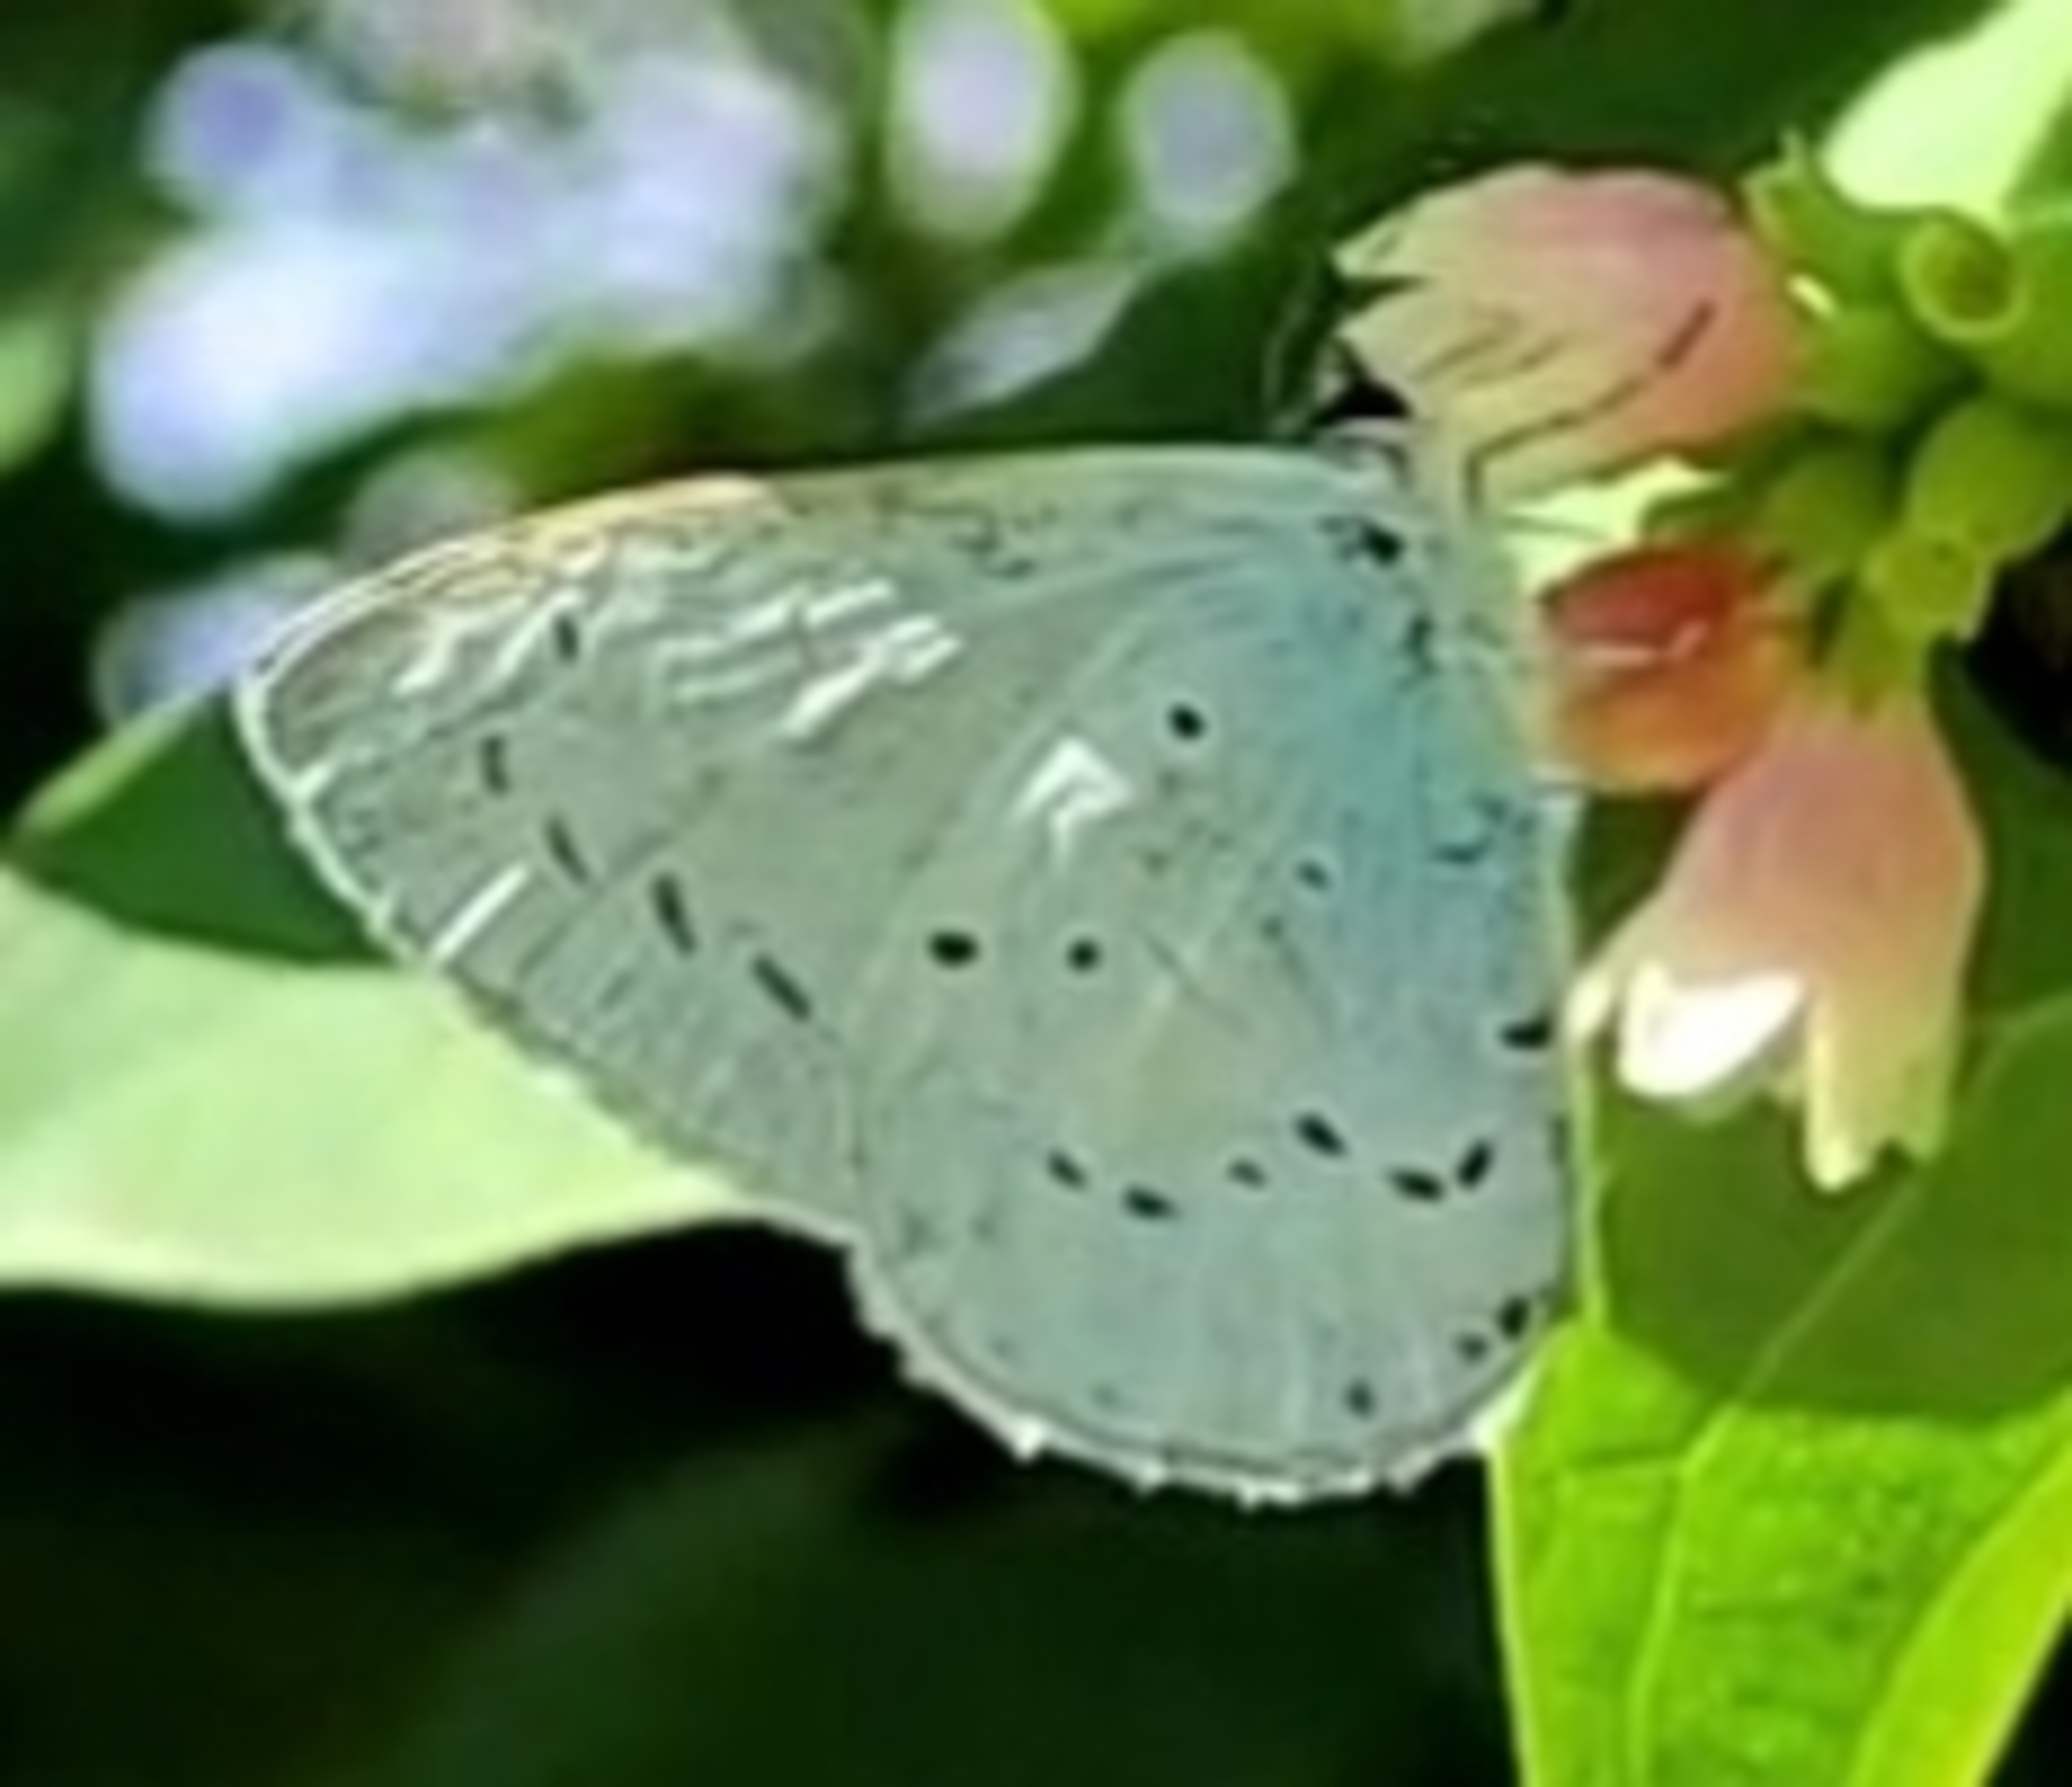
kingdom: Animalia
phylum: Arthropoda
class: Insecta
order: Lepidoptera
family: Lycaenidae
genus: Celastrina
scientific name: Celastrina argiolus
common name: Skovblåfugl
